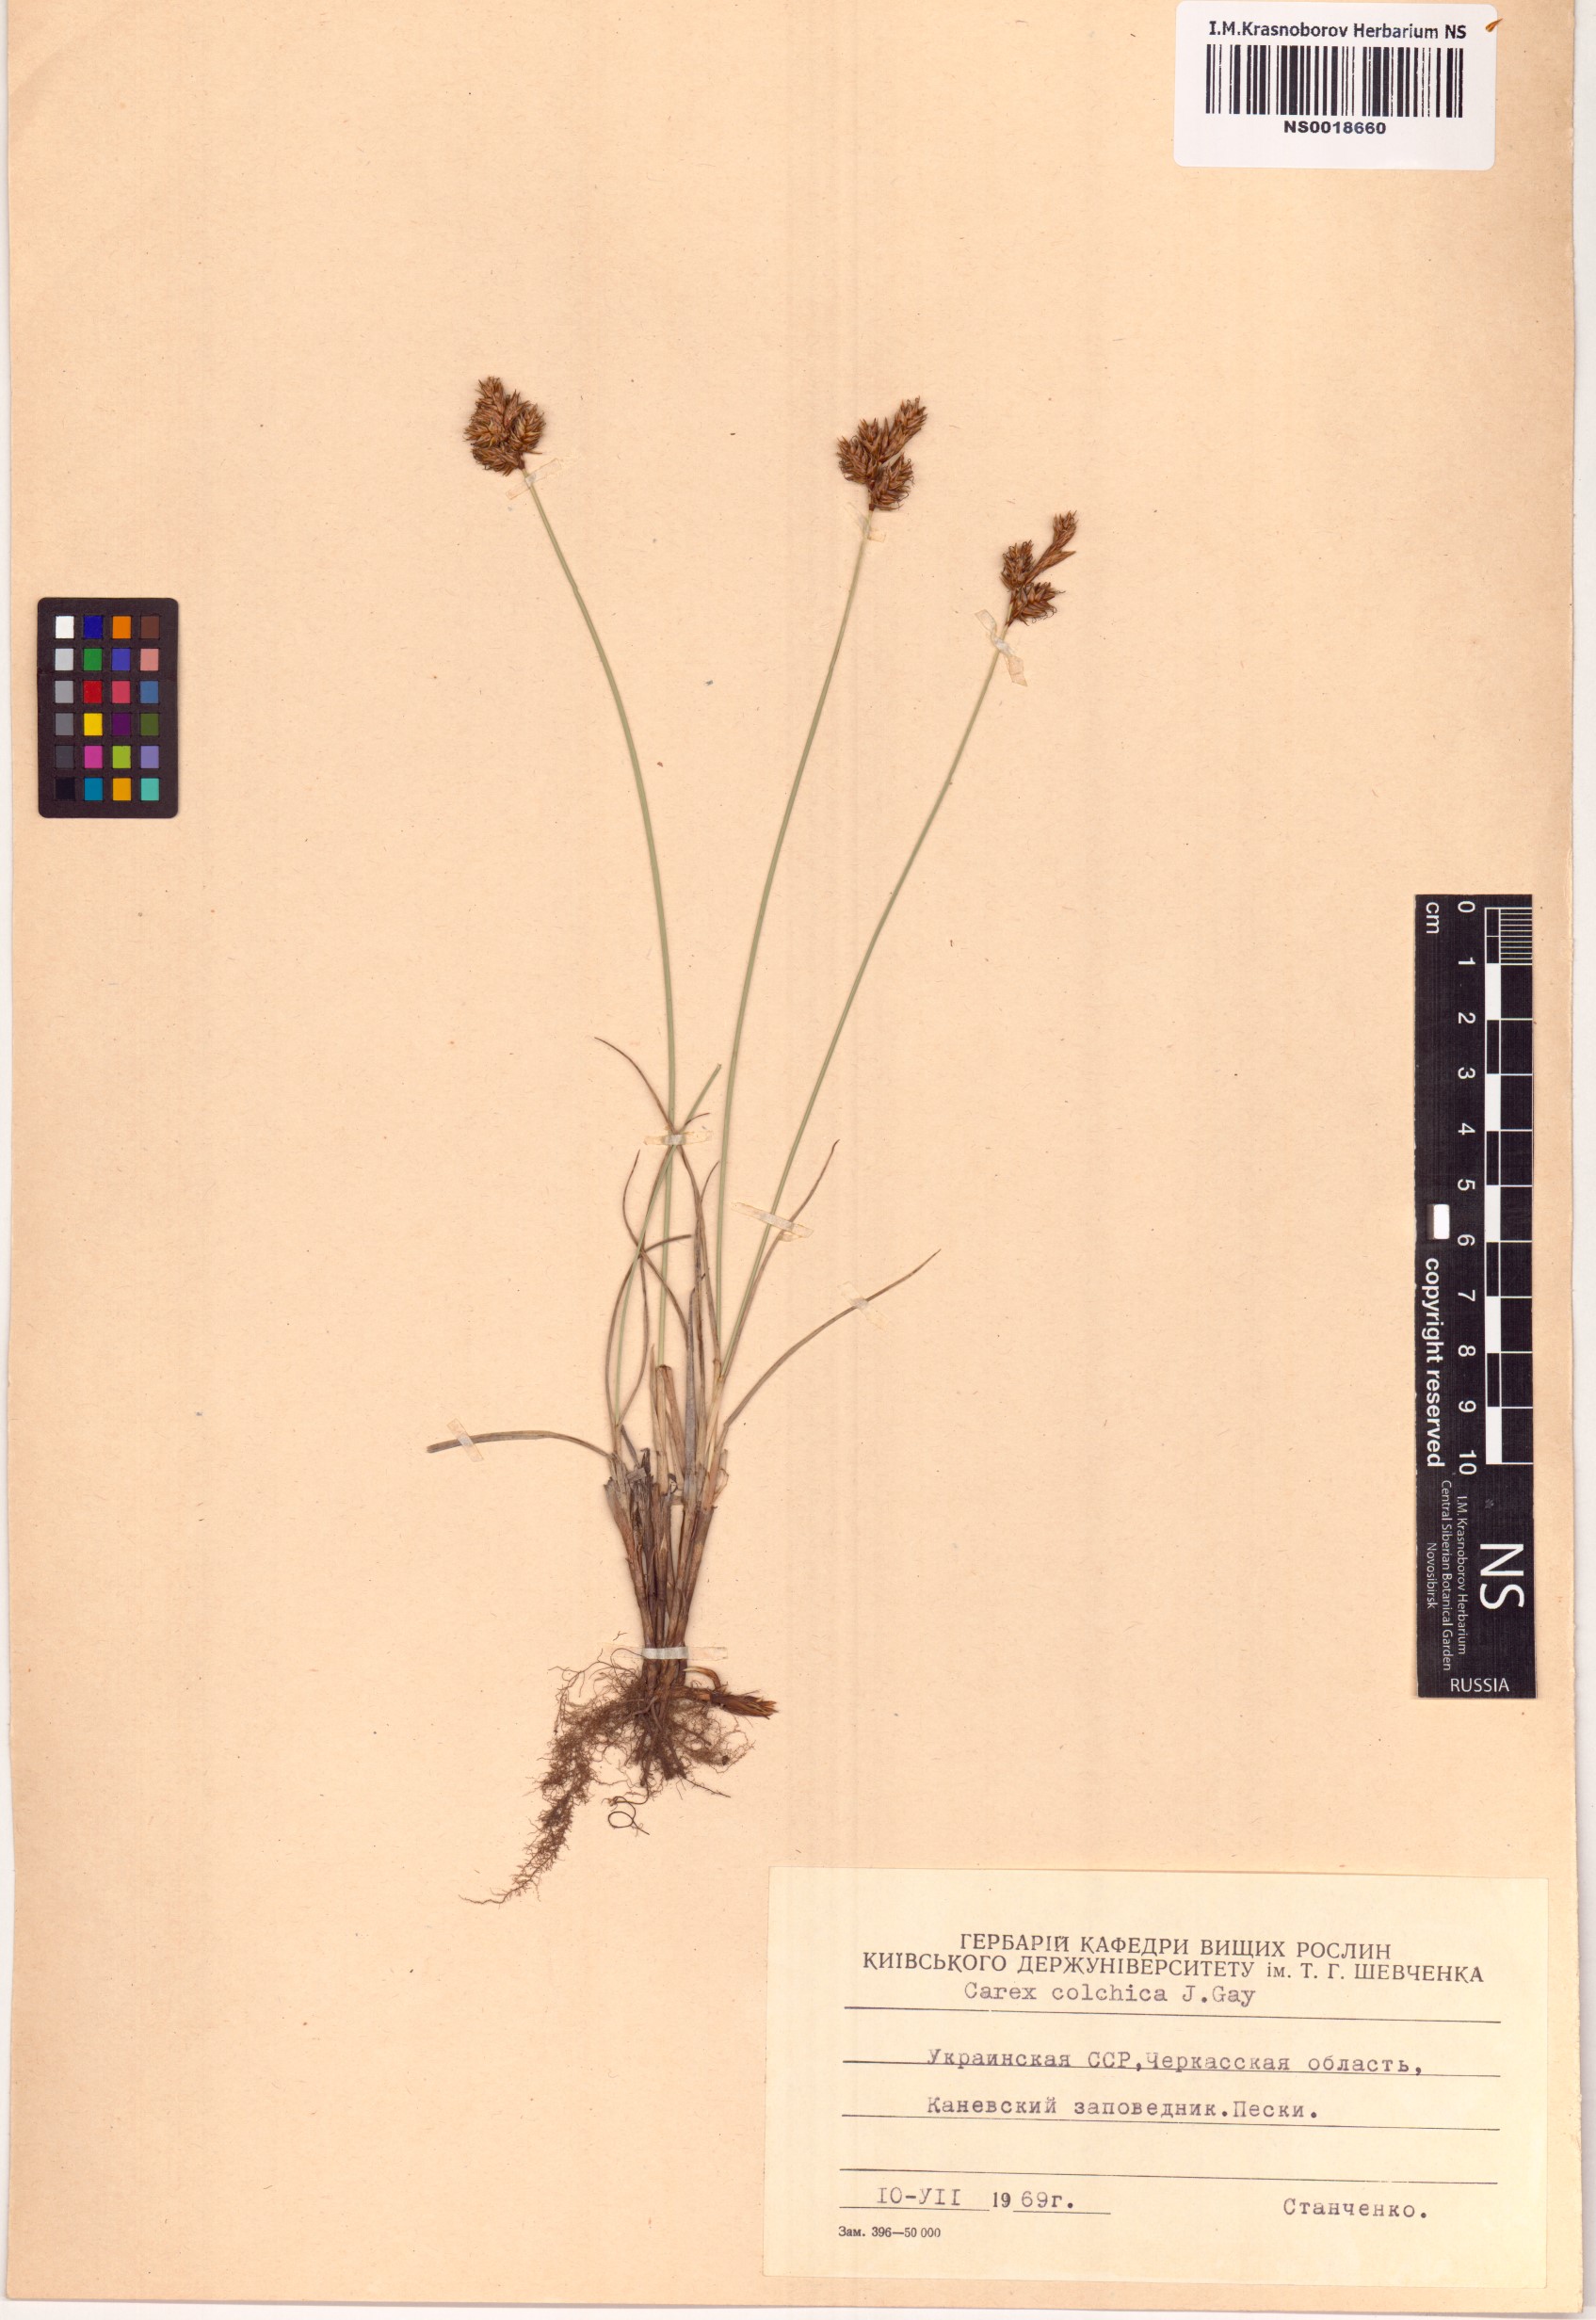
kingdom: Plantae
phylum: Tracheophyta
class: Liliopsida
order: Poales
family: Cyperaceae
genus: Carex
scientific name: Carex colchica
